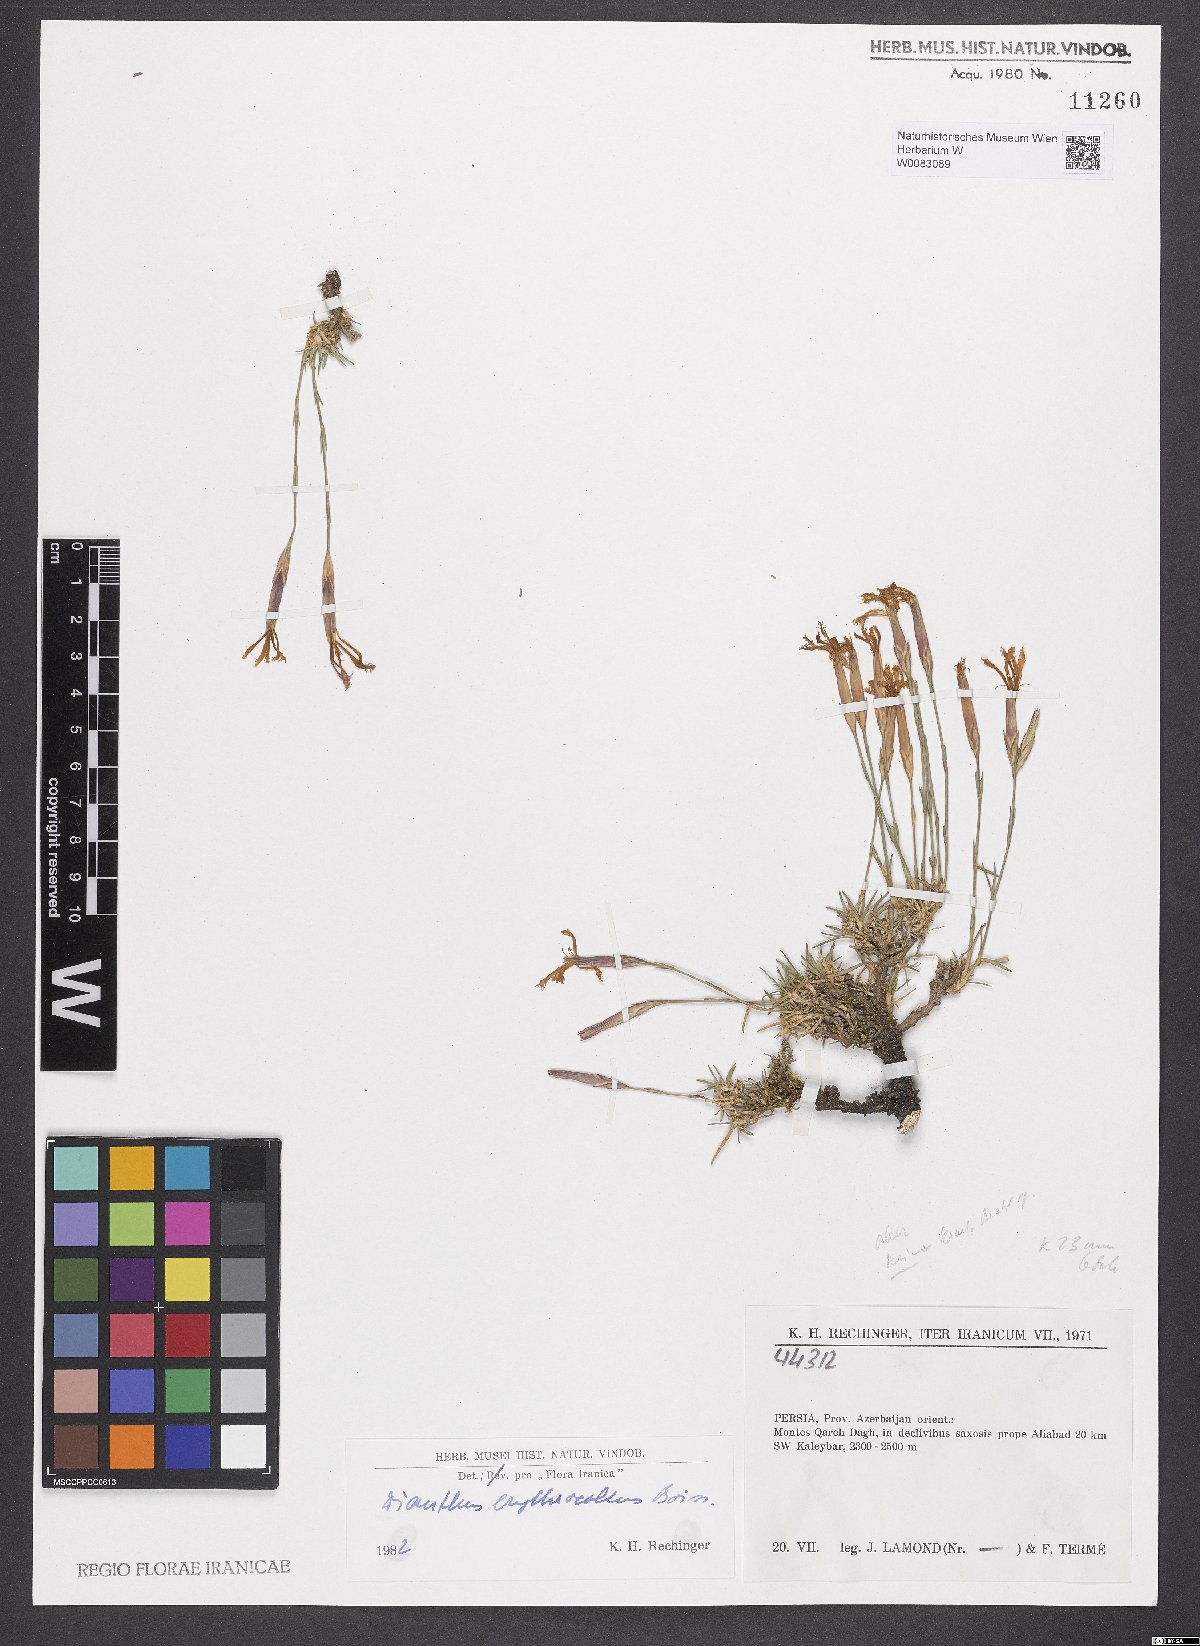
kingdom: Plantae
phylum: Tracheophyta
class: Magnoliopsida
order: Caryophyllales
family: Caryophyllaceae
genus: Dianthus
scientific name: Dianthus erythrocoleus
